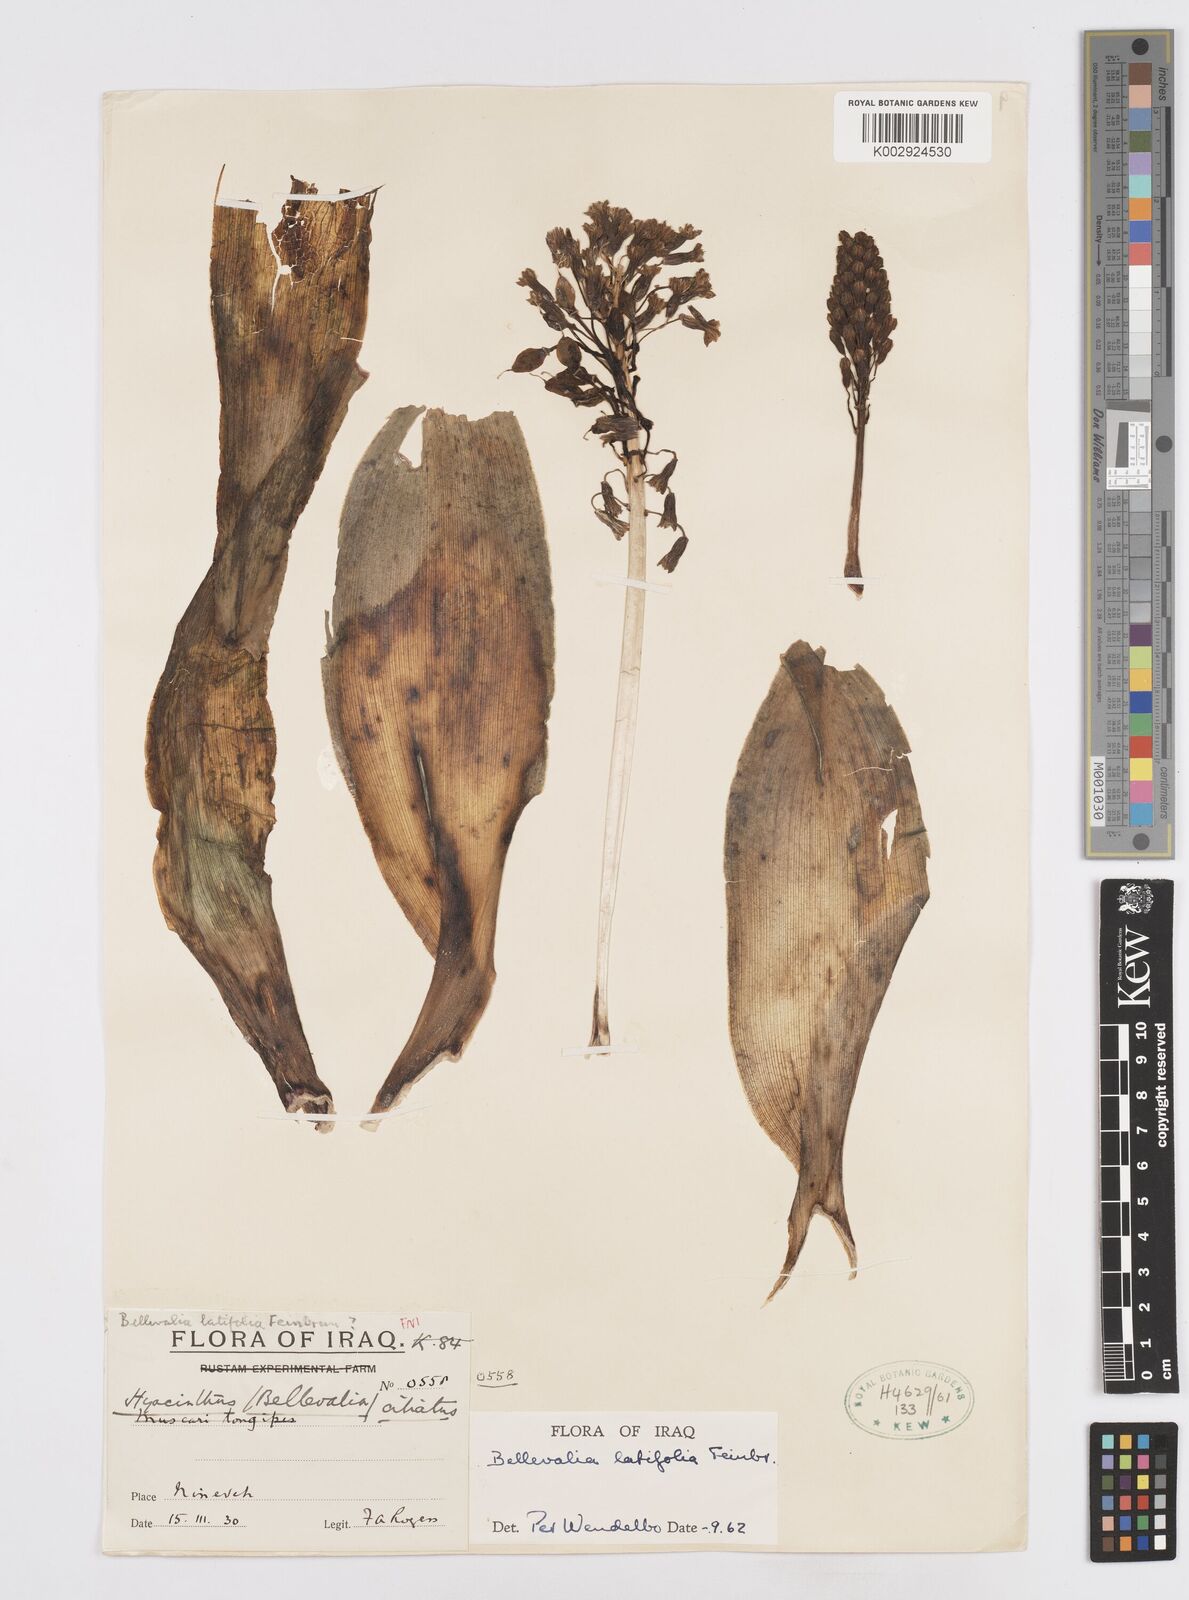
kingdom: Plantae
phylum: Tracheophyta
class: Liliopsida
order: Asparagales
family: Asparagaceae
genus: Bellevalia
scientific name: Bellevalia olivieri
